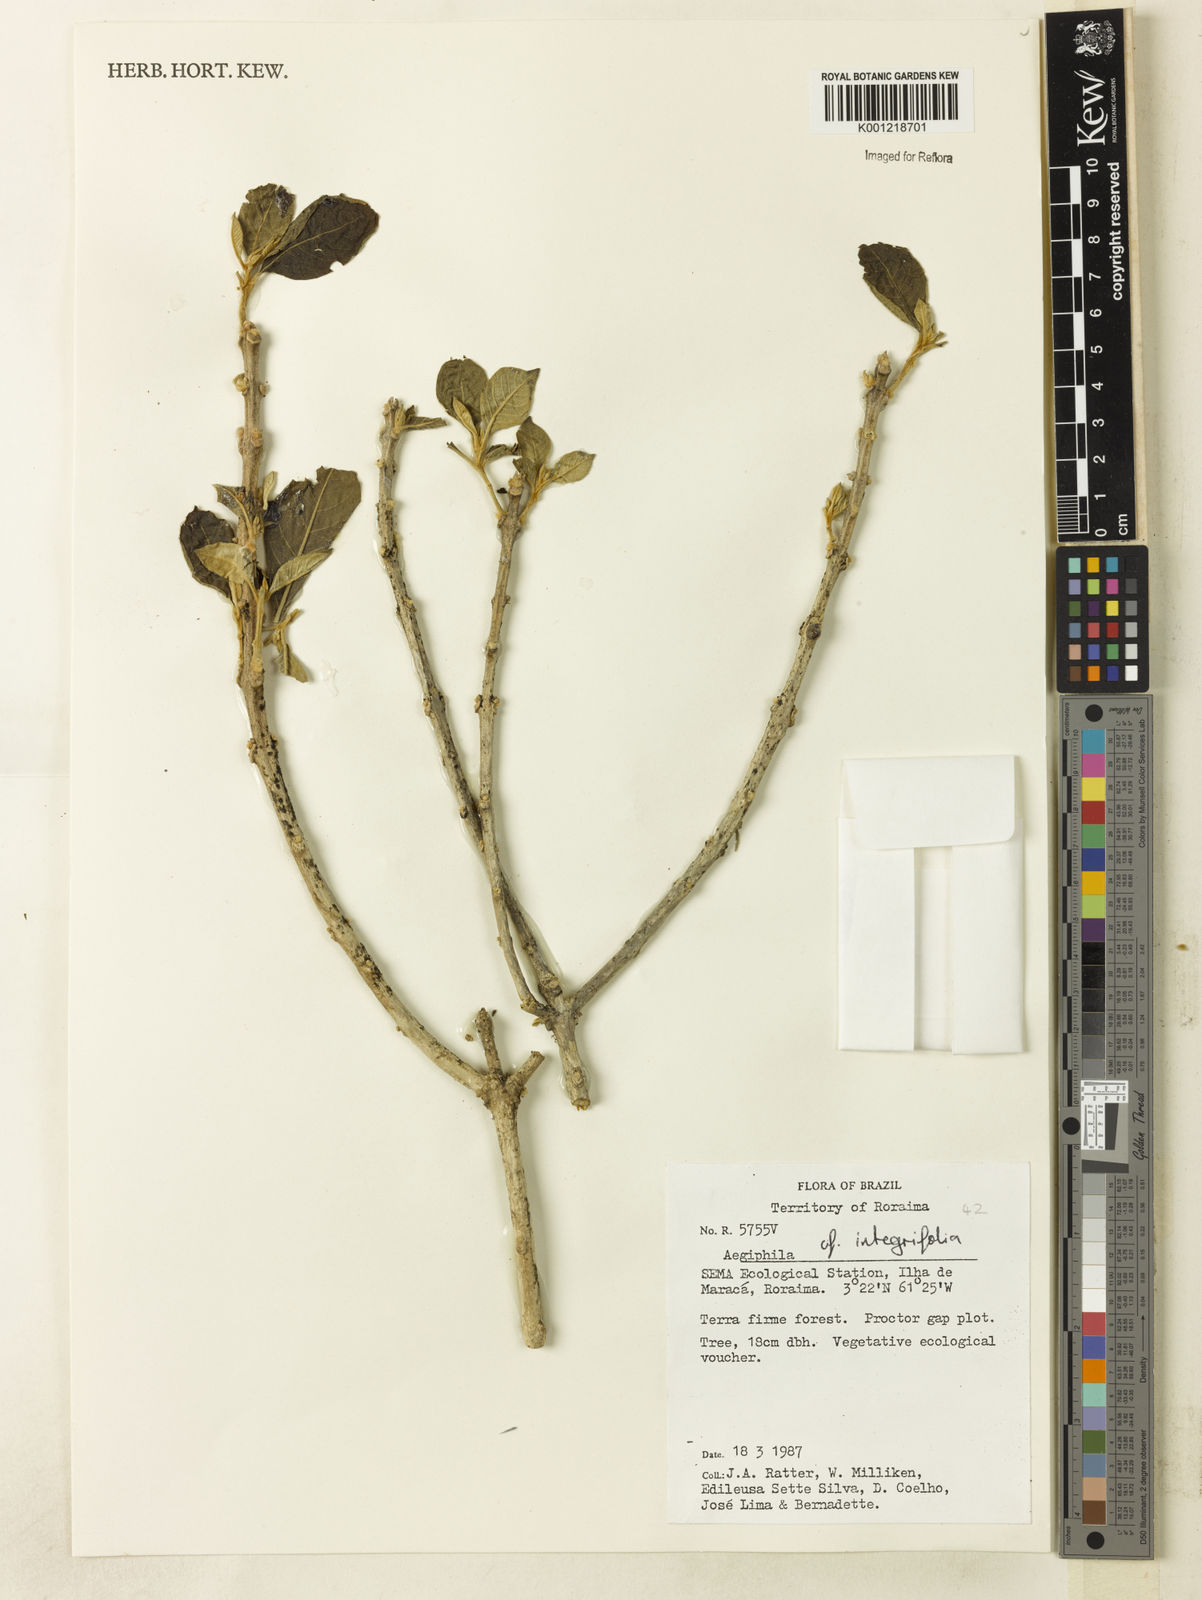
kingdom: Plantae
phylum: Tracheophyta
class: Magnoliopsida
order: Lamiales
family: Lamiaceae
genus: Aegiphila
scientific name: Aegiphila paraguariensis
